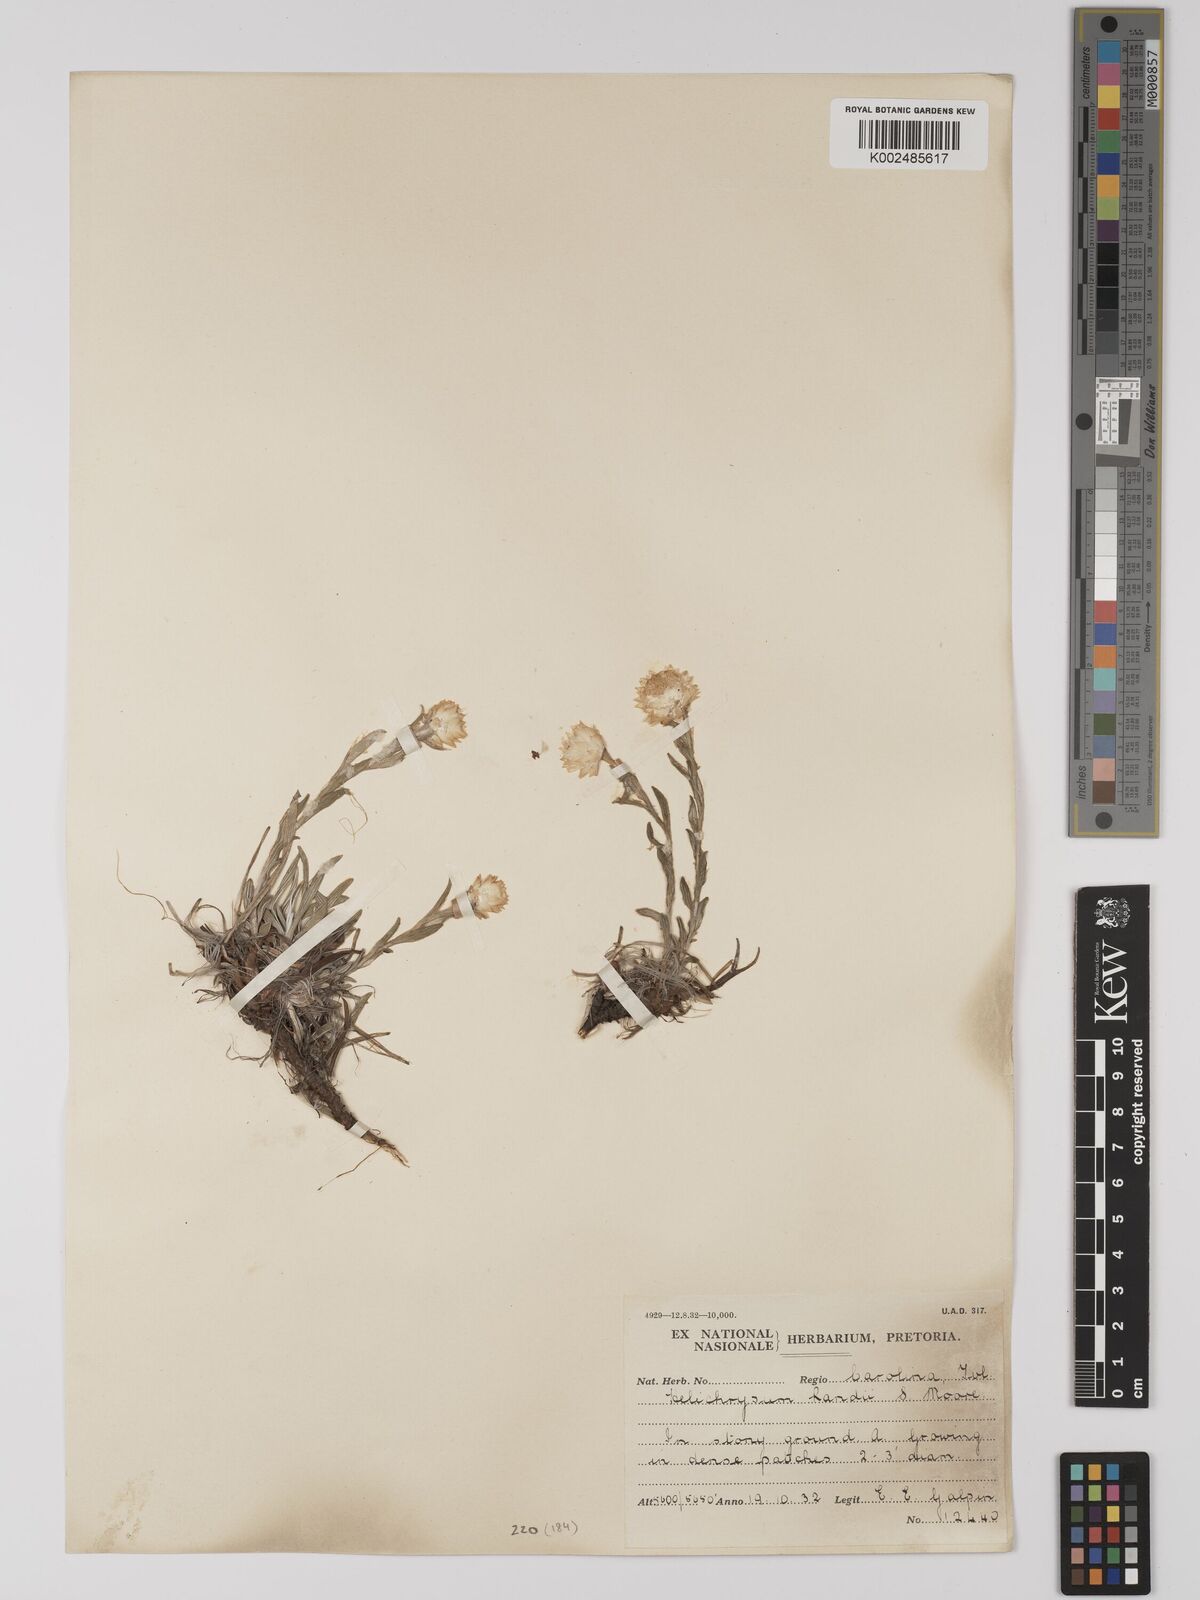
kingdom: Plantae
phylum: Tracheophyta
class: Magnoliopsida
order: Asterales
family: Asteraceae
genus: Helichrysum
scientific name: Helichrysum chionosphaerum
